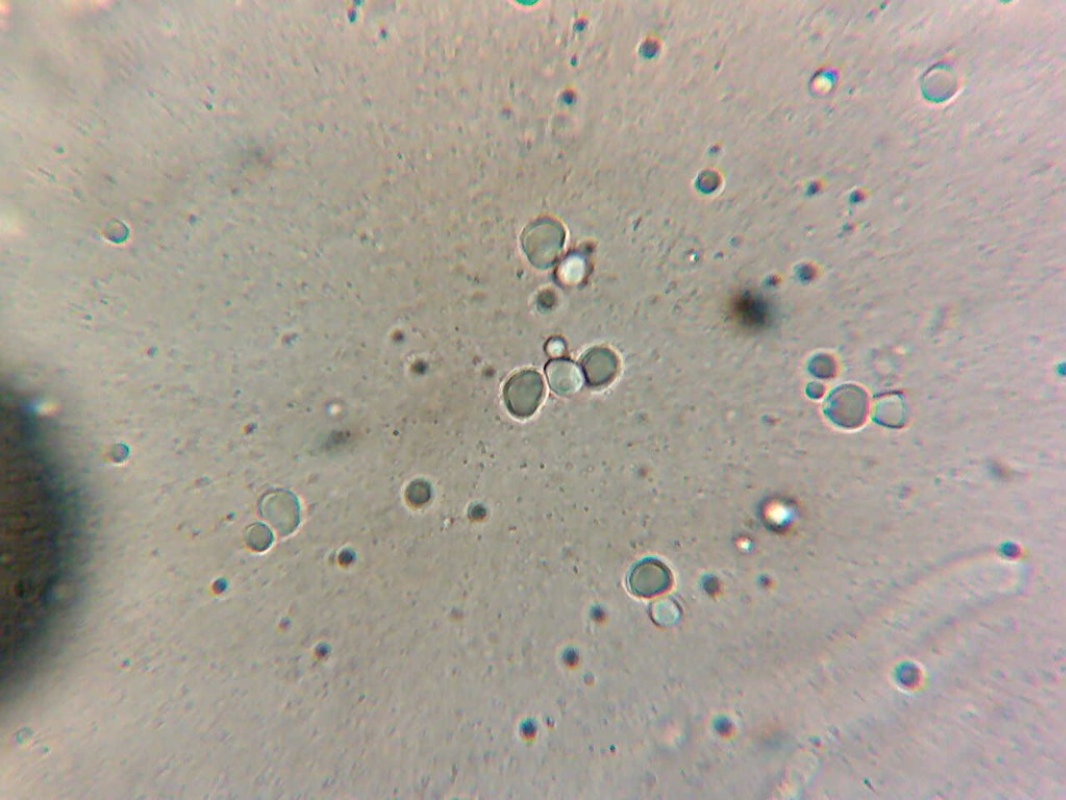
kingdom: Fungi
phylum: Basidiomycota
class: Agaricomycetes
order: Agaricales
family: Marasmiaceae
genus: Pleurocybella
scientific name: Pleurocybella porrigens
